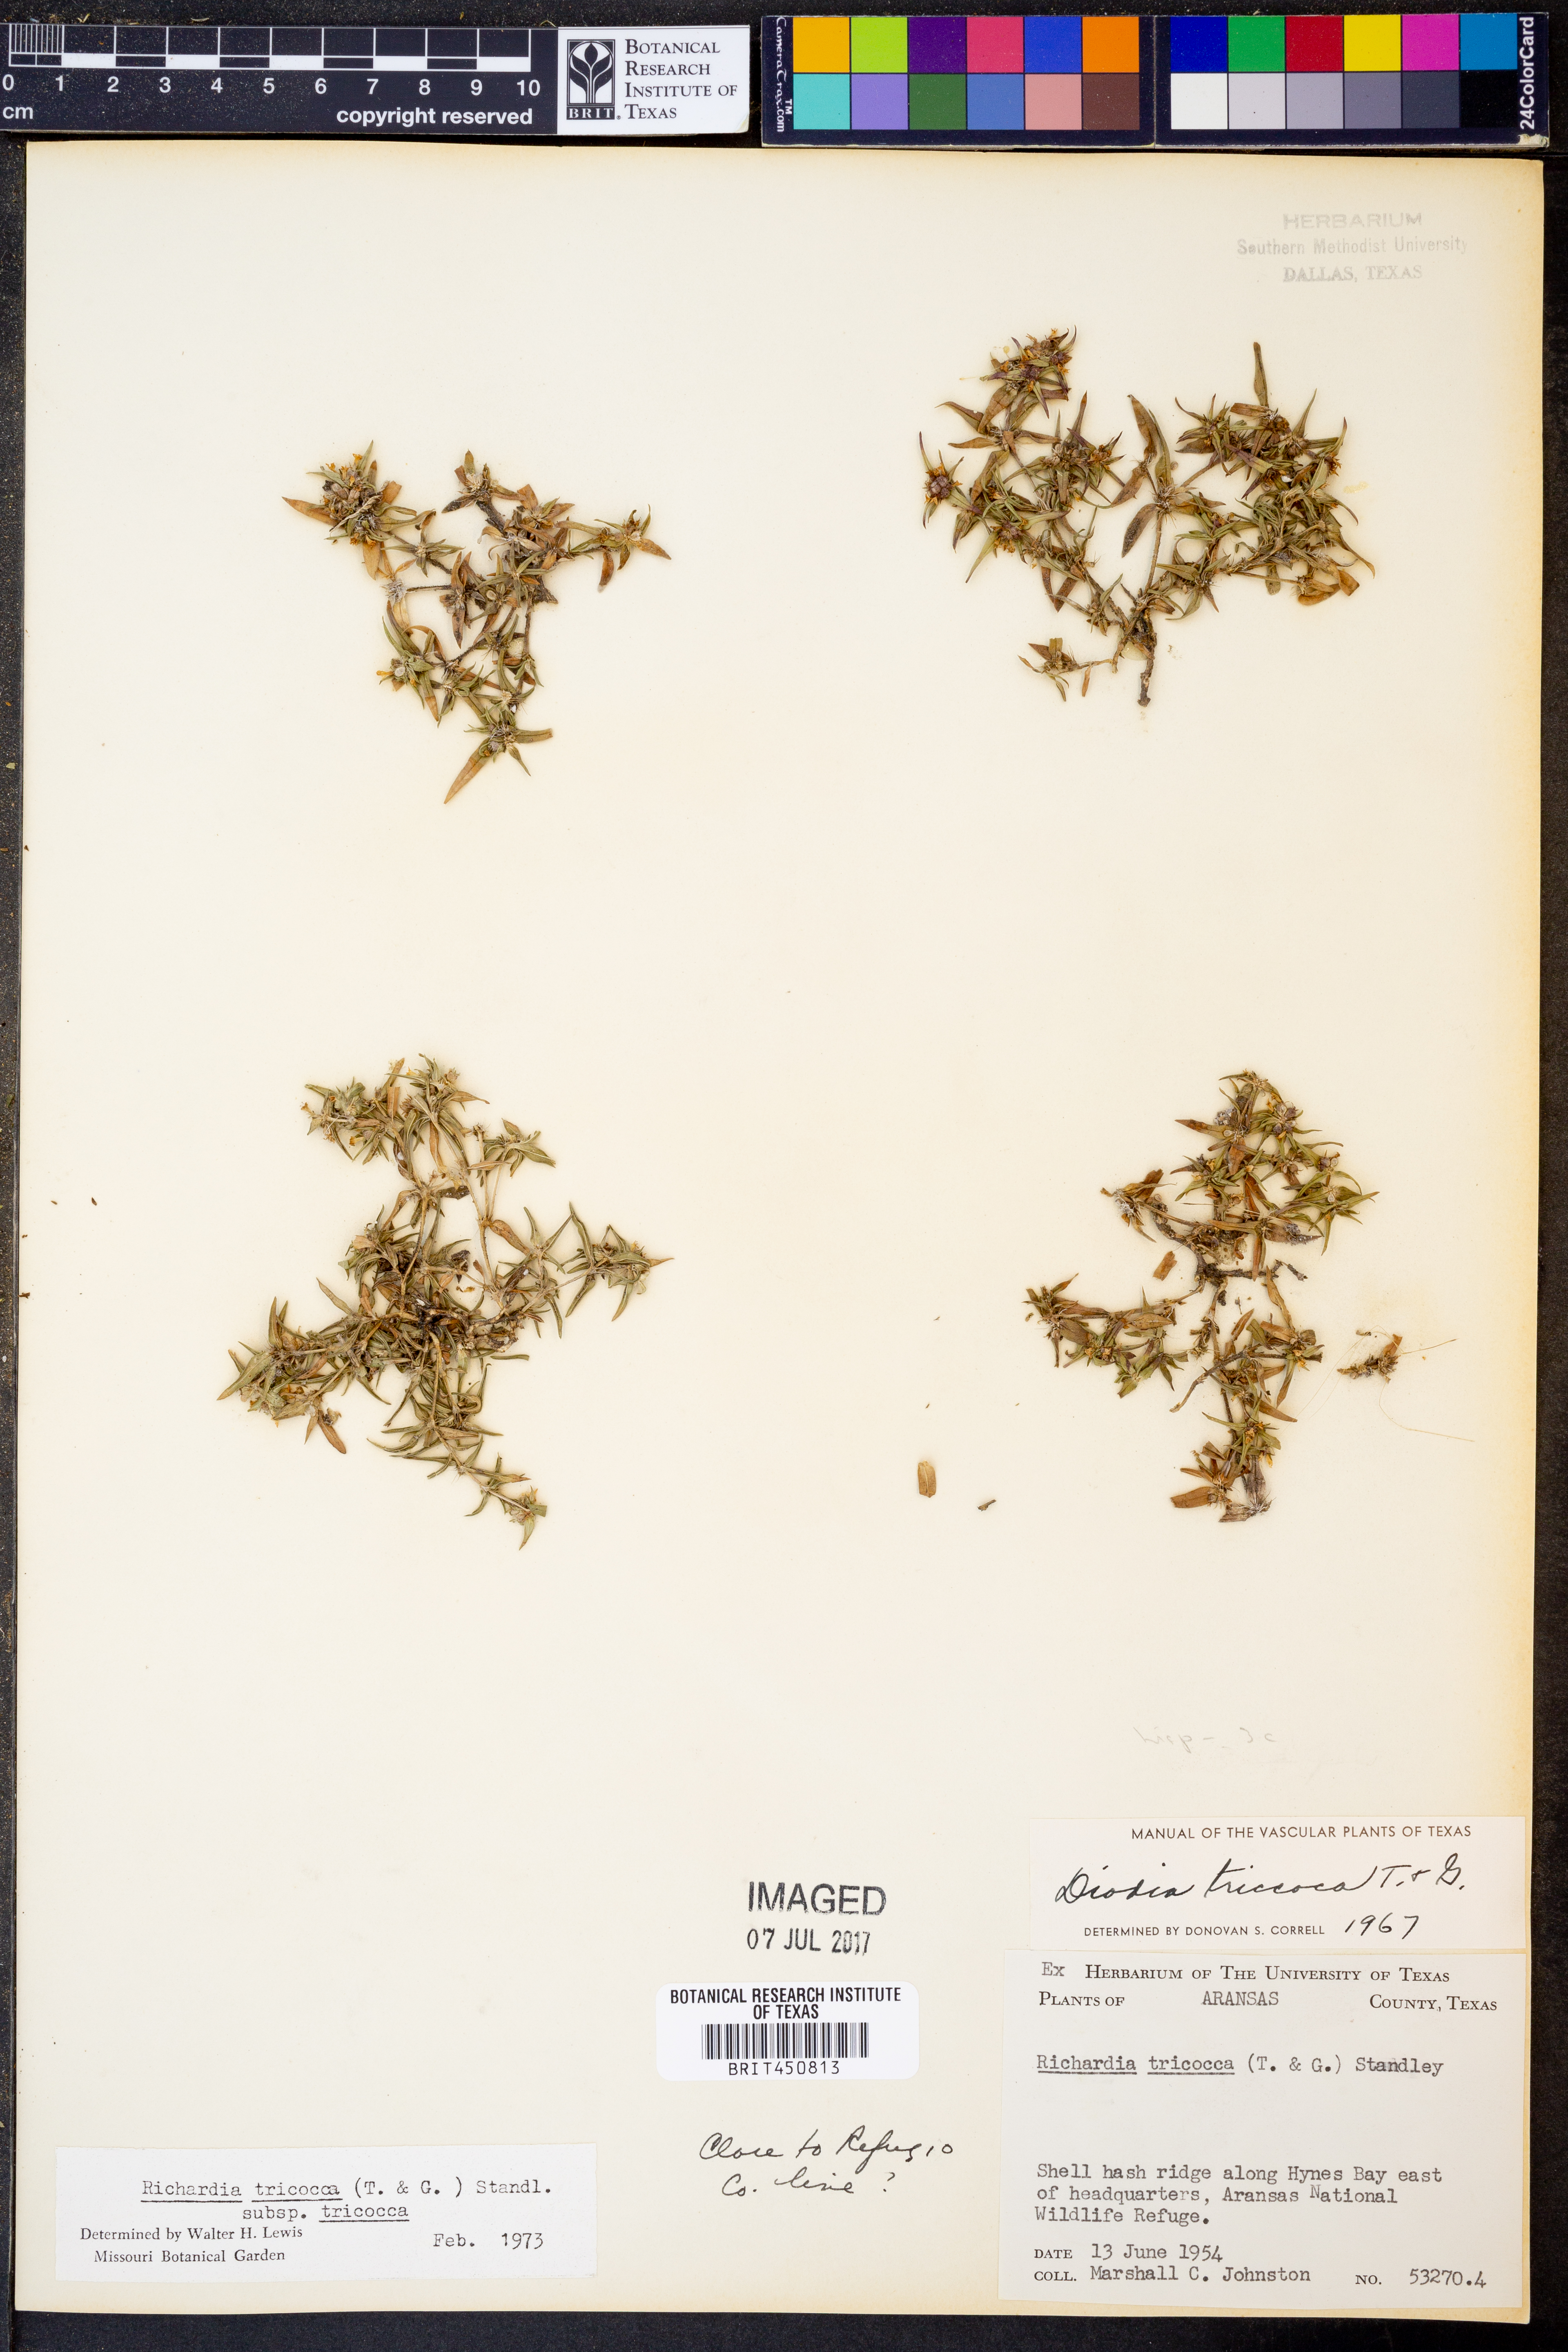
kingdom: Plantae
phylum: Tracheophyta
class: Magnoliopsida
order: Gentianales
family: Rubiaceae
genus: Richardia
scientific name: Richardia tricocca
